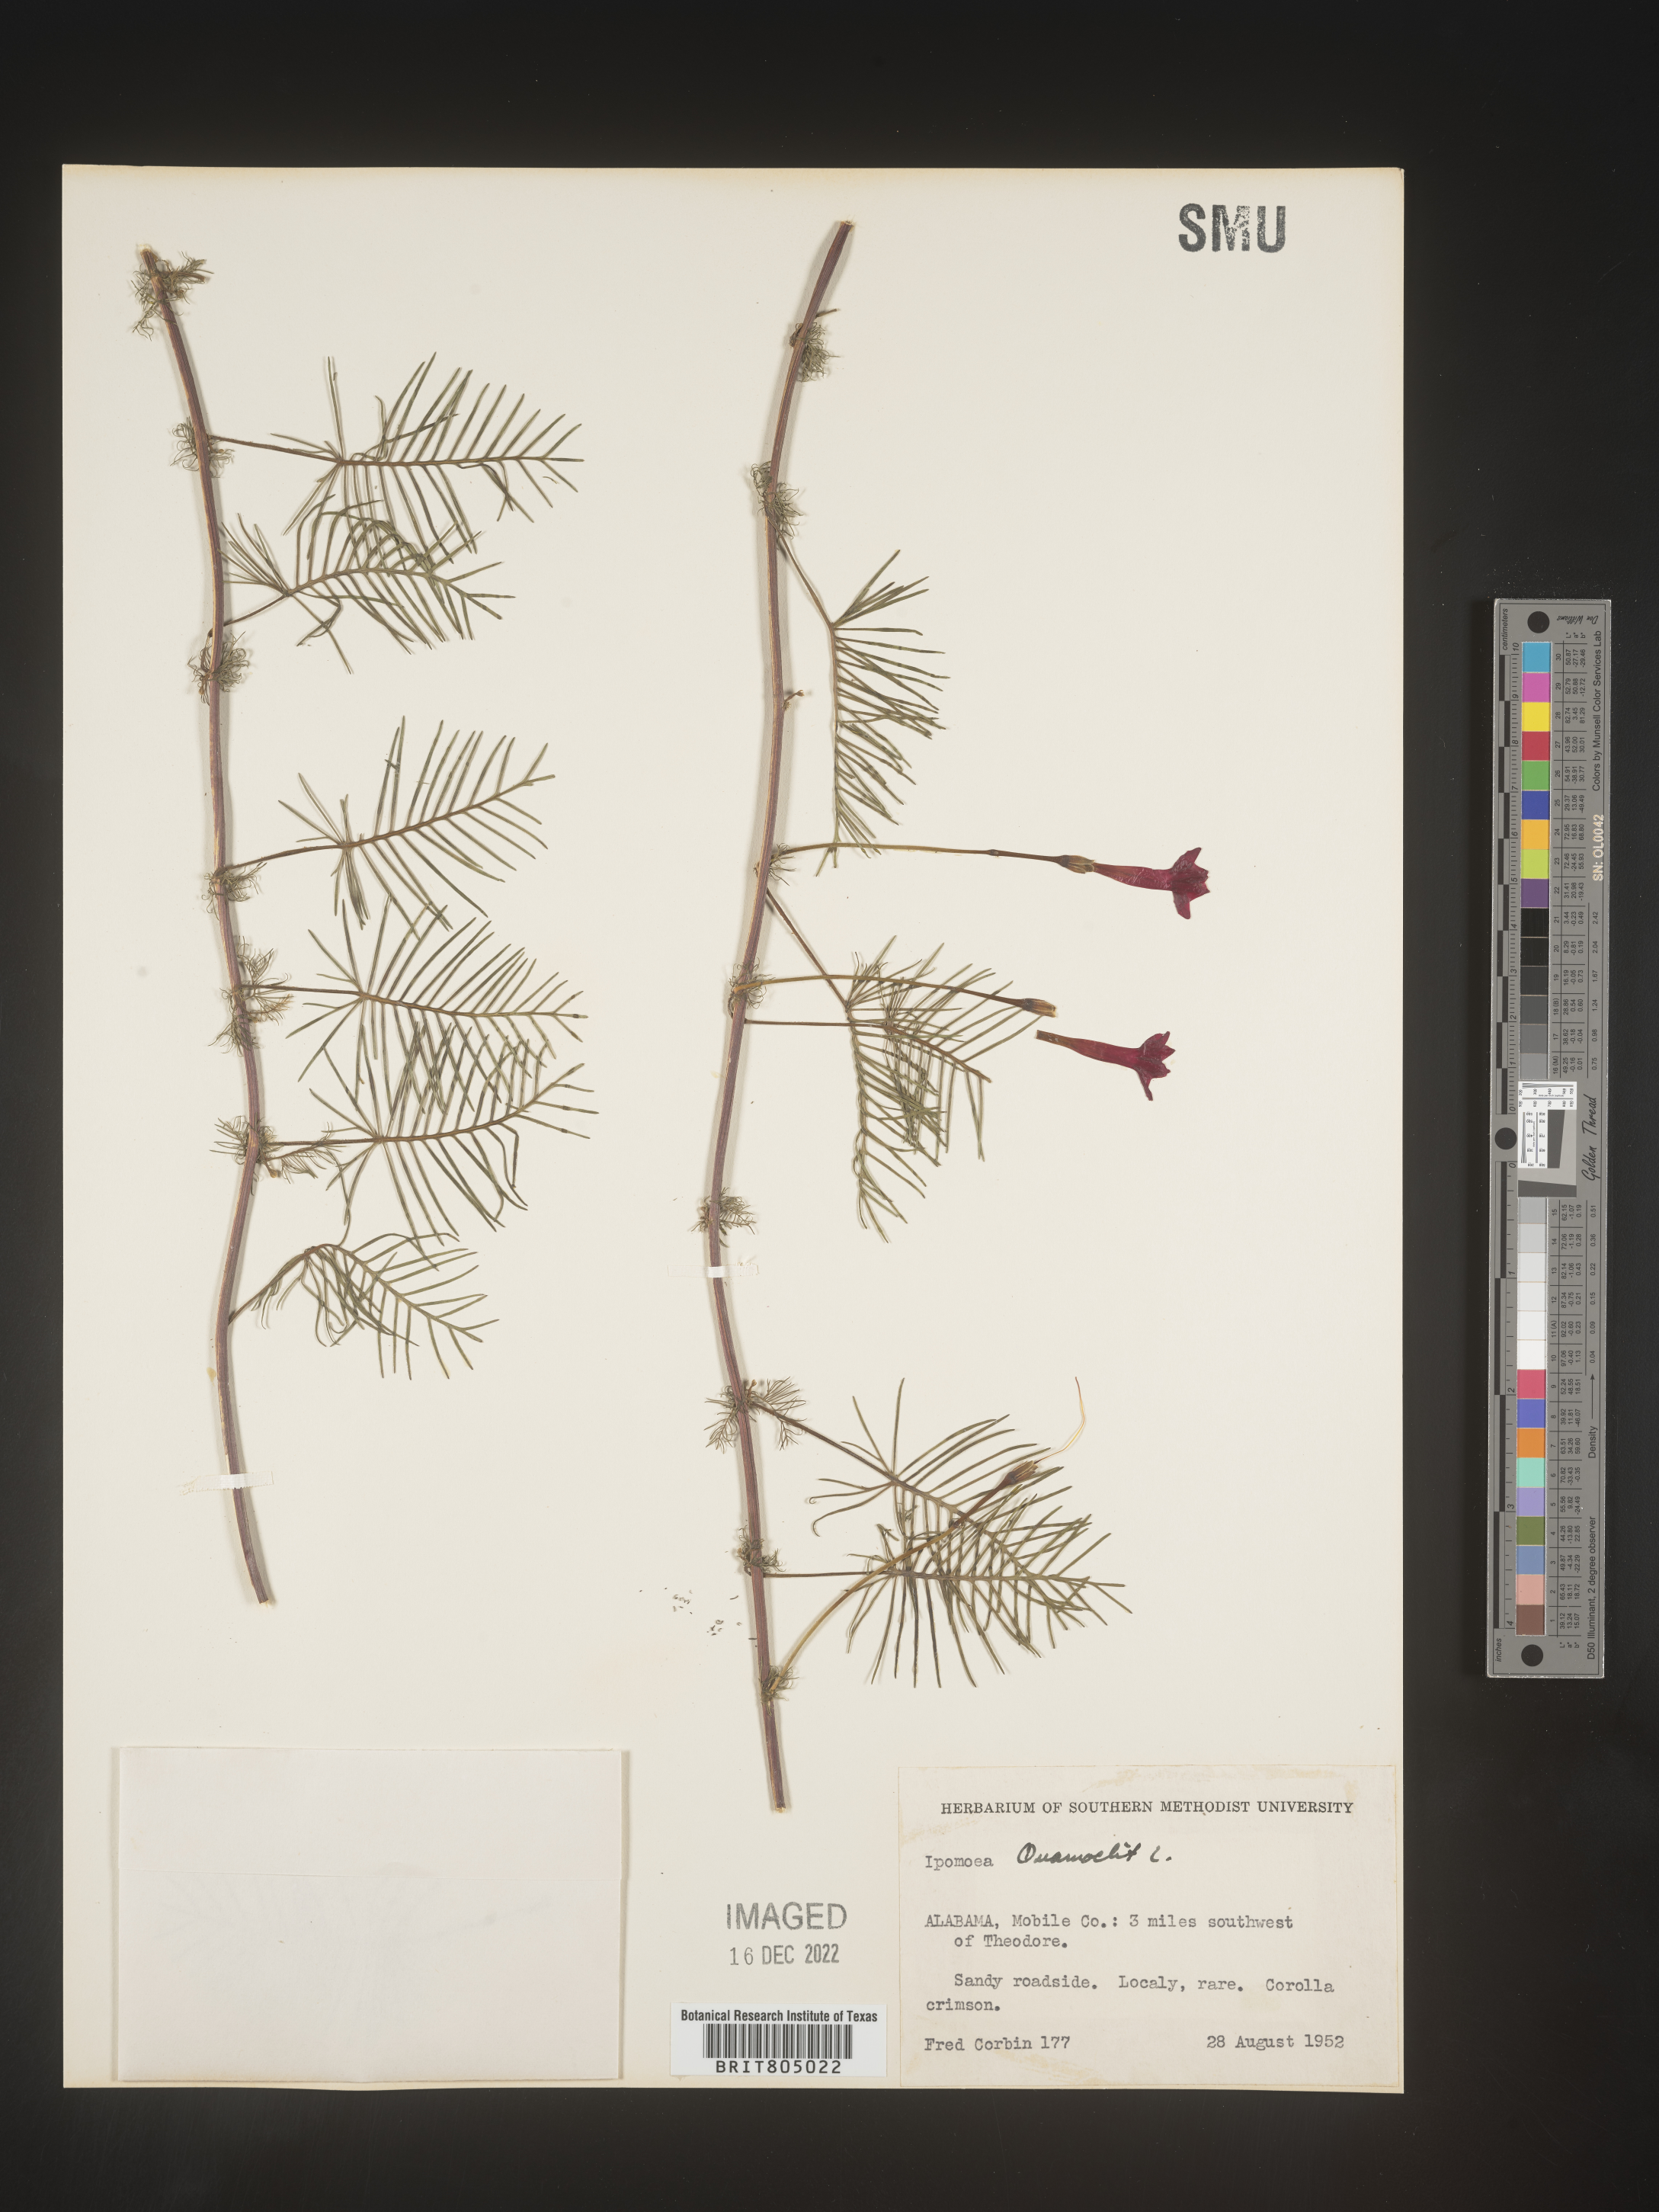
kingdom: Plantae
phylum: Tracheophyta
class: Magnoliopsida
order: Solanales
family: Convolvulaceae
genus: Ipomoea
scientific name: Ipomoea quamoclit
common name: Cypress vine
